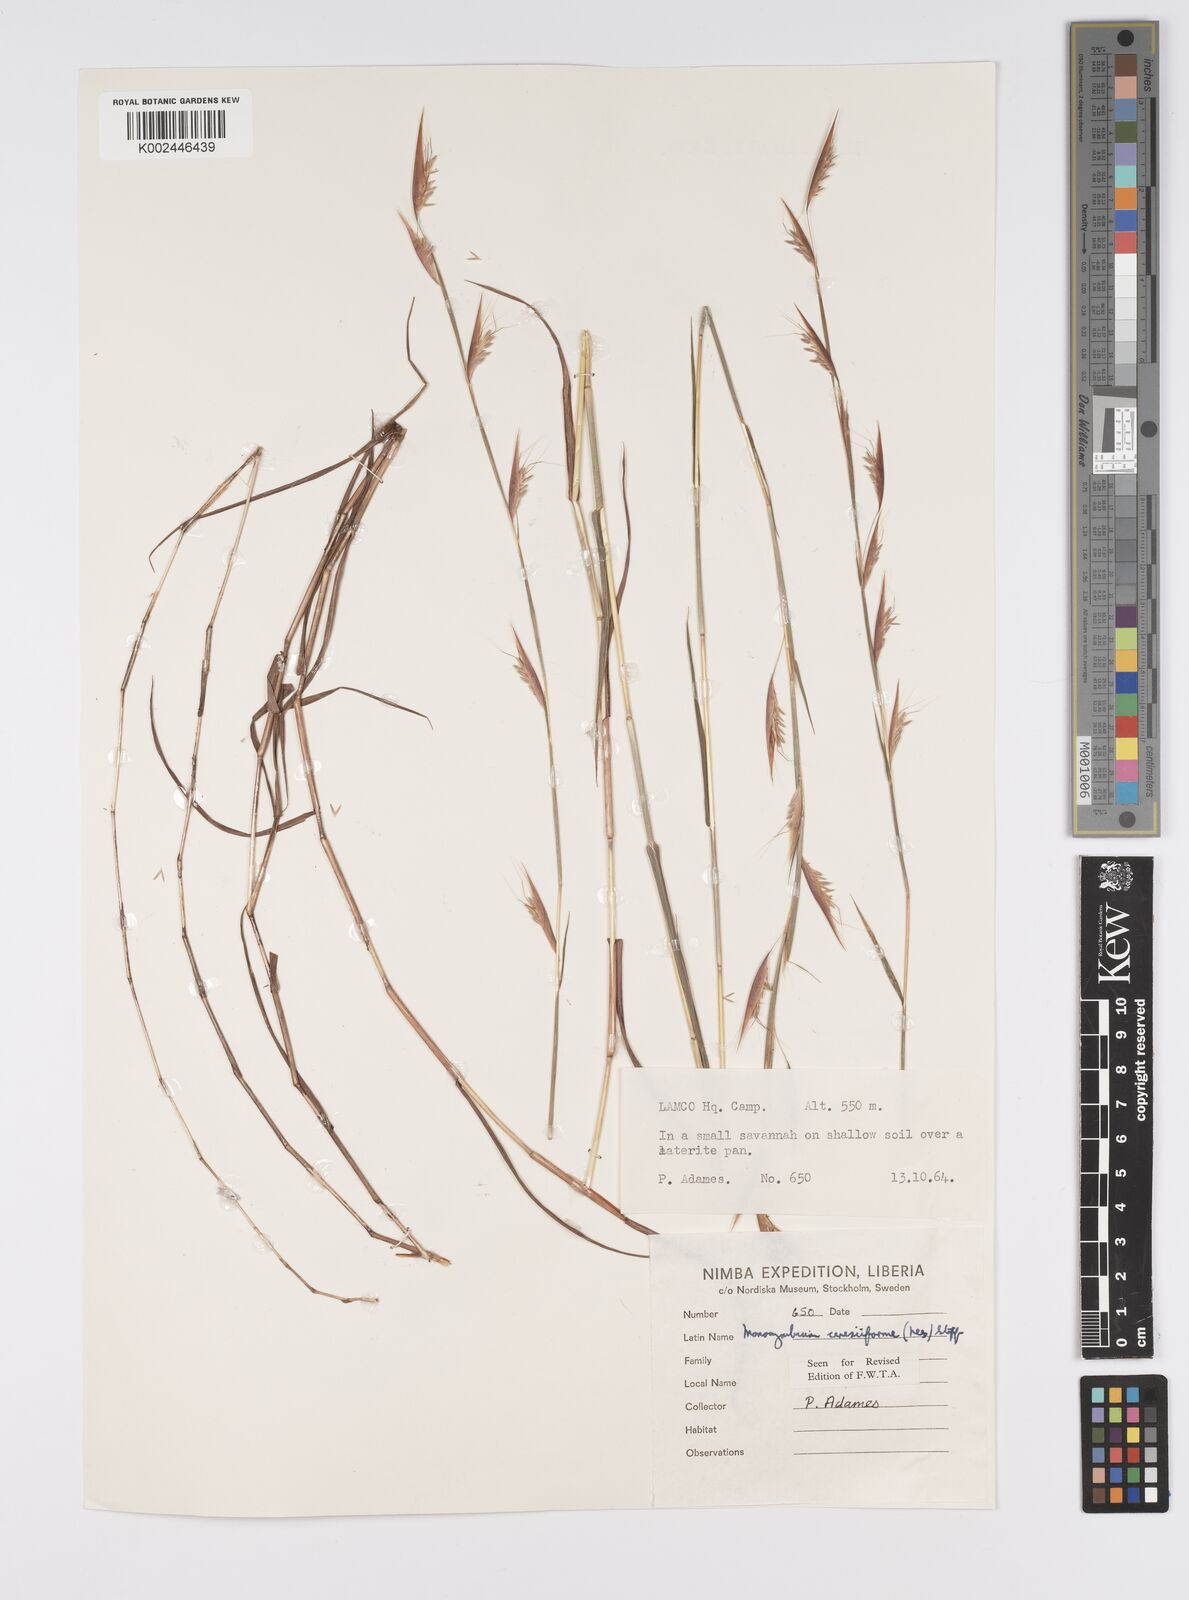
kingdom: Plantae
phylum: Tracheophyta
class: Liliopsida
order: Poales
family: Poaceae
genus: Monocymbium
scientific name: Monocymbium ceresiiforme
